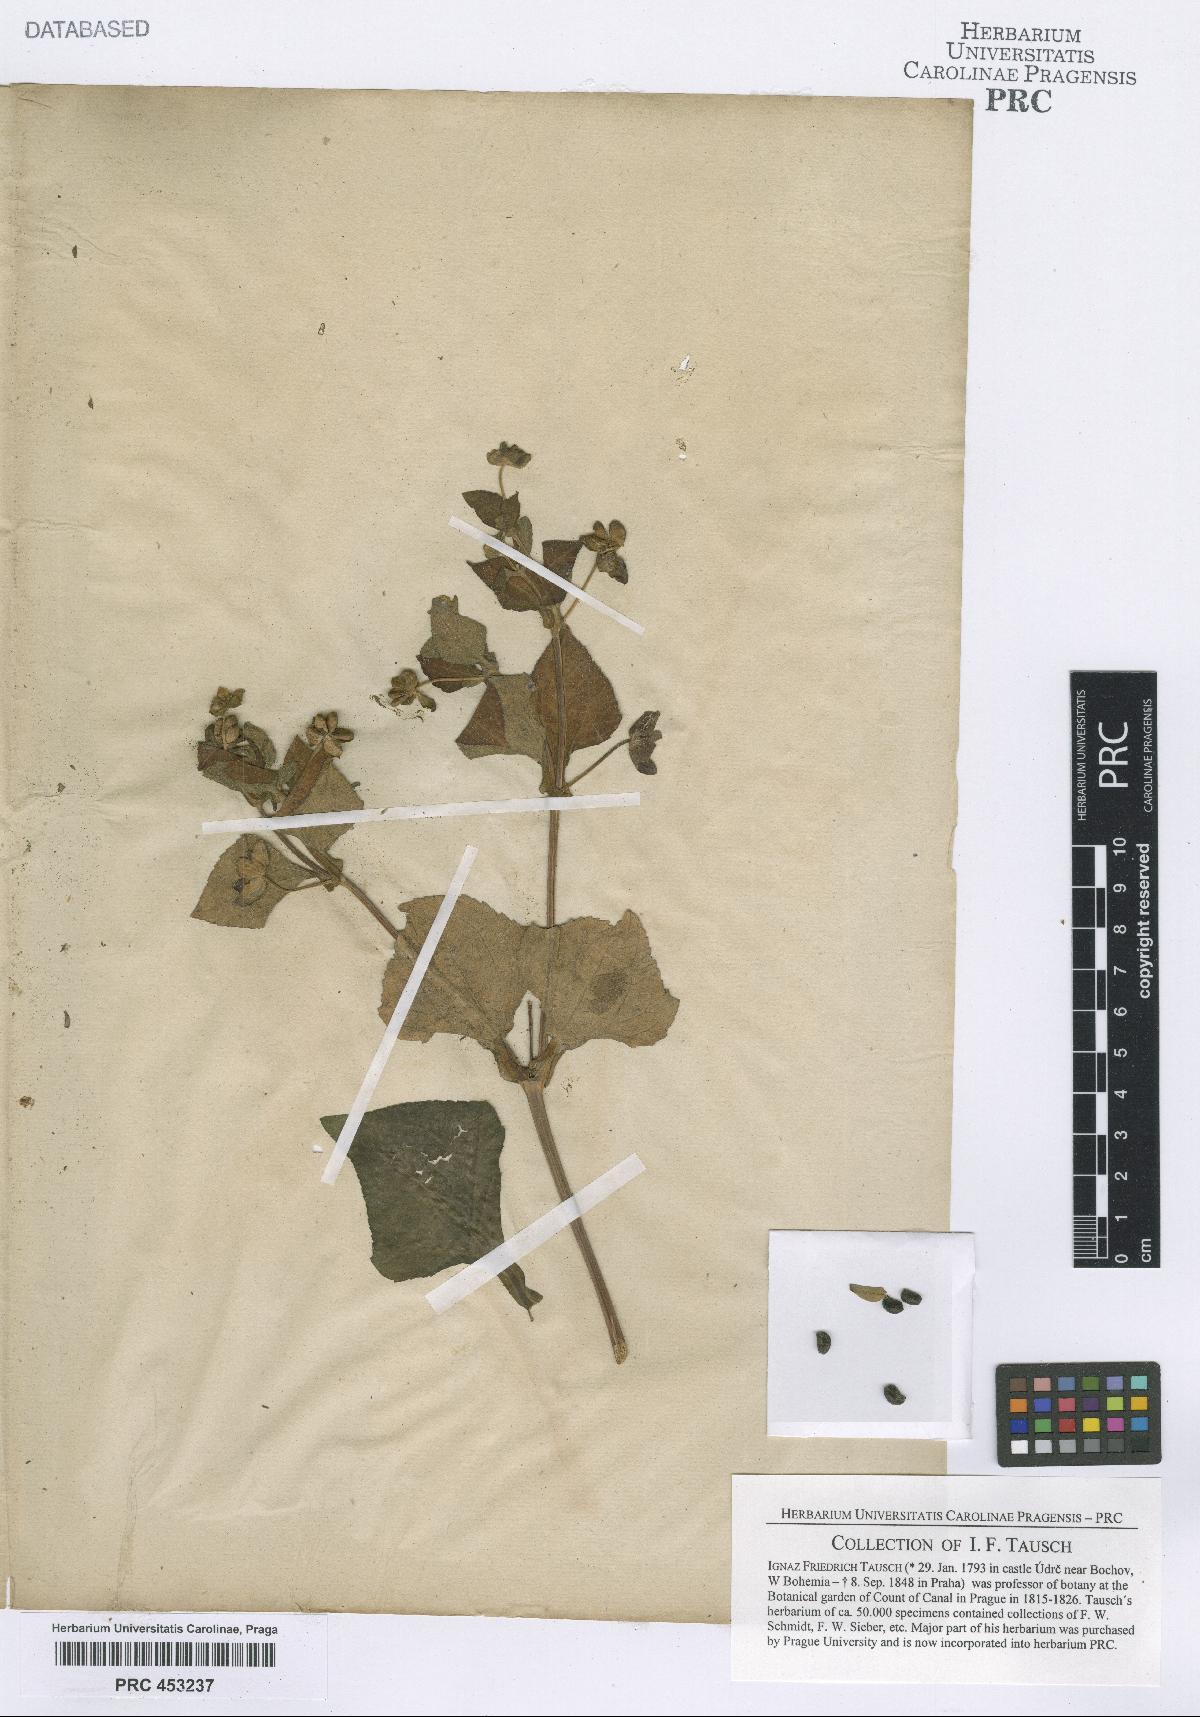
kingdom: Plantae
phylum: Tracheophyta
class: Magnoliopsida
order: Asterales
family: Asteraceae
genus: Melampodium
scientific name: Melampodium perfoliatum
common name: Perfoliate blackfoot
